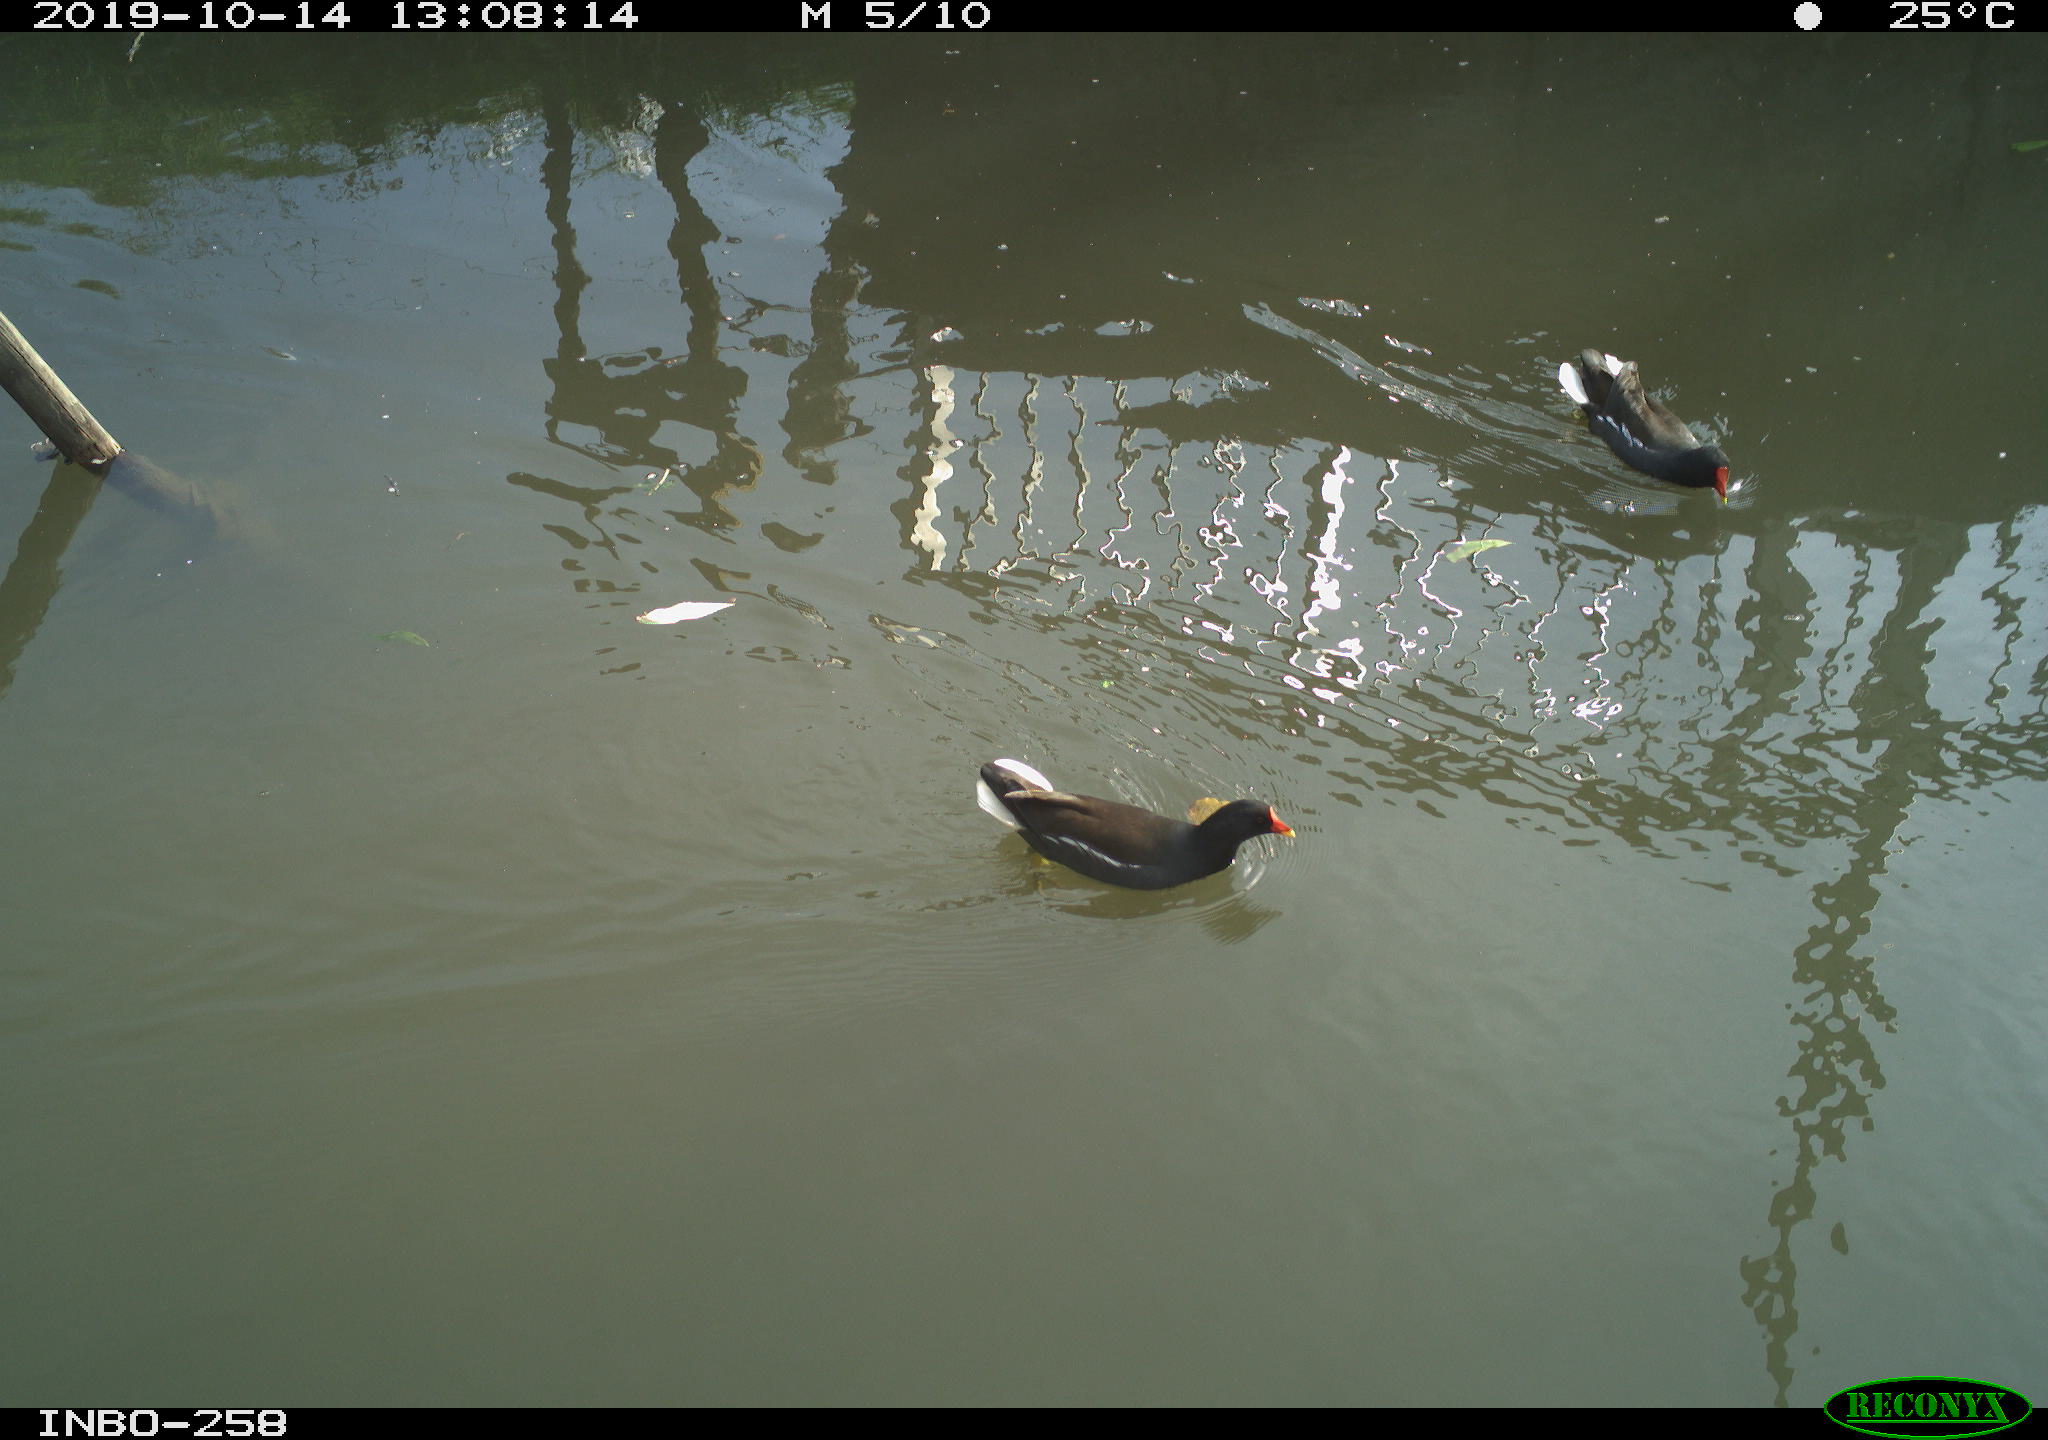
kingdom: Animalia
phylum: Chordata
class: Aves
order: Gruiformes
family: Rallidae
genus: Gallinula
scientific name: Gallinula chloropus
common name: Common moorhen
